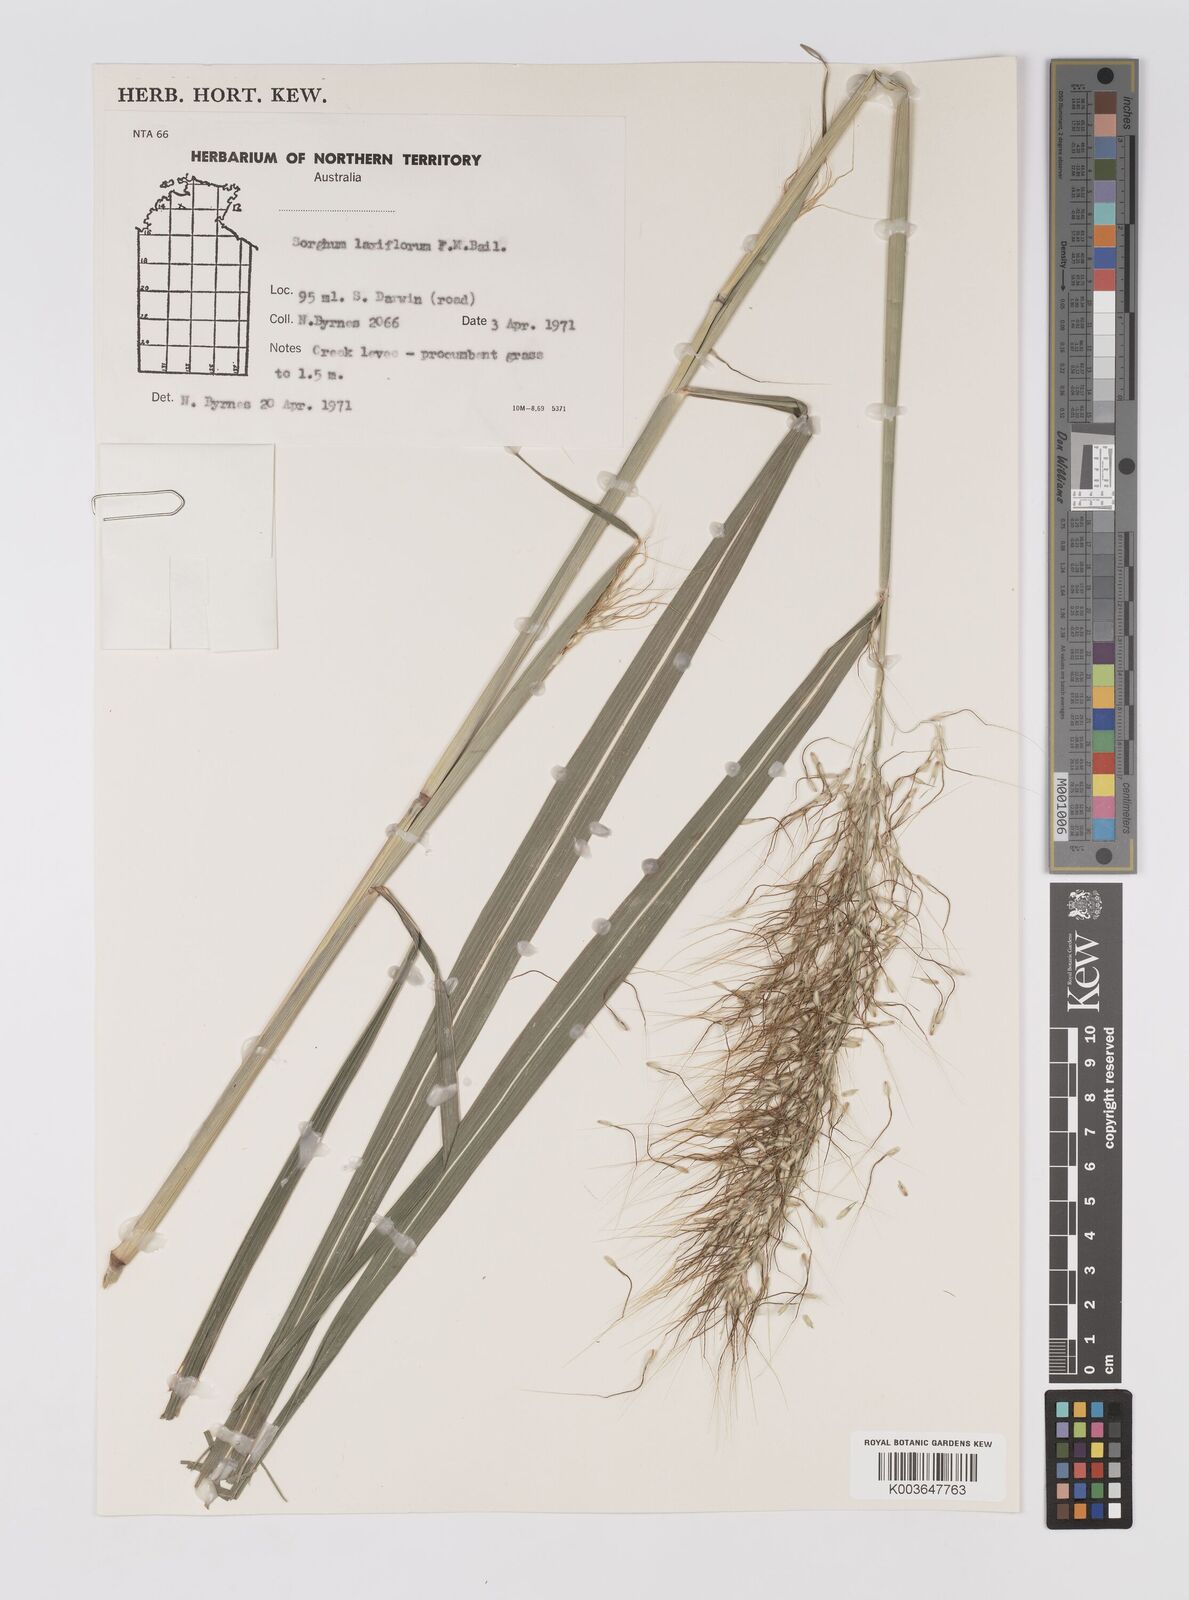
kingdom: Plantae
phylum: Tracheophyta
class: Liliopsida
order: Poales
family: Poaceae
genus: Sorghum
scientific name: Sorghum laxiflorum
